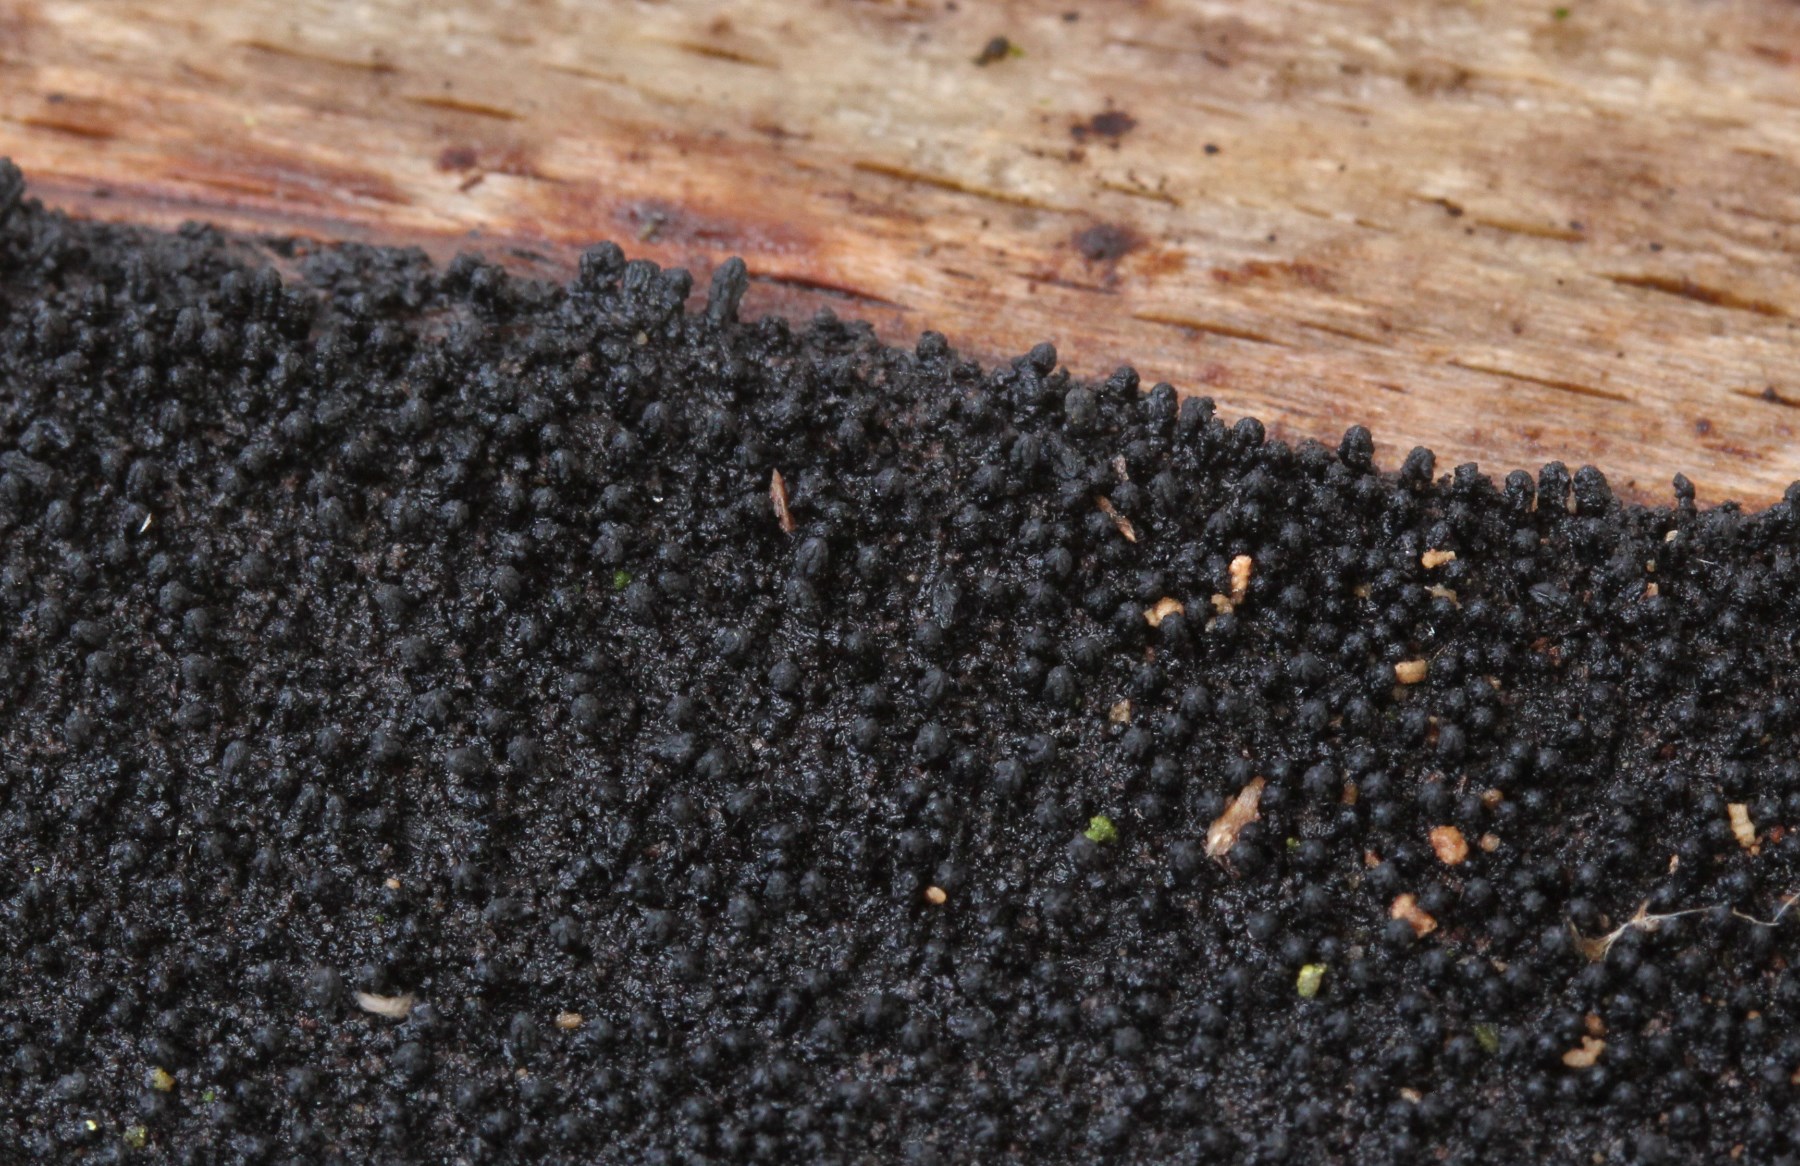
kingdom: Fungi
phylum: Ascomycota
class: Sordariomycetes
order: Xylariales
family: Diatrypaceae
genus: Eutypa
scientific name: Eutypa spinosa
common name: grov kulskorpe
